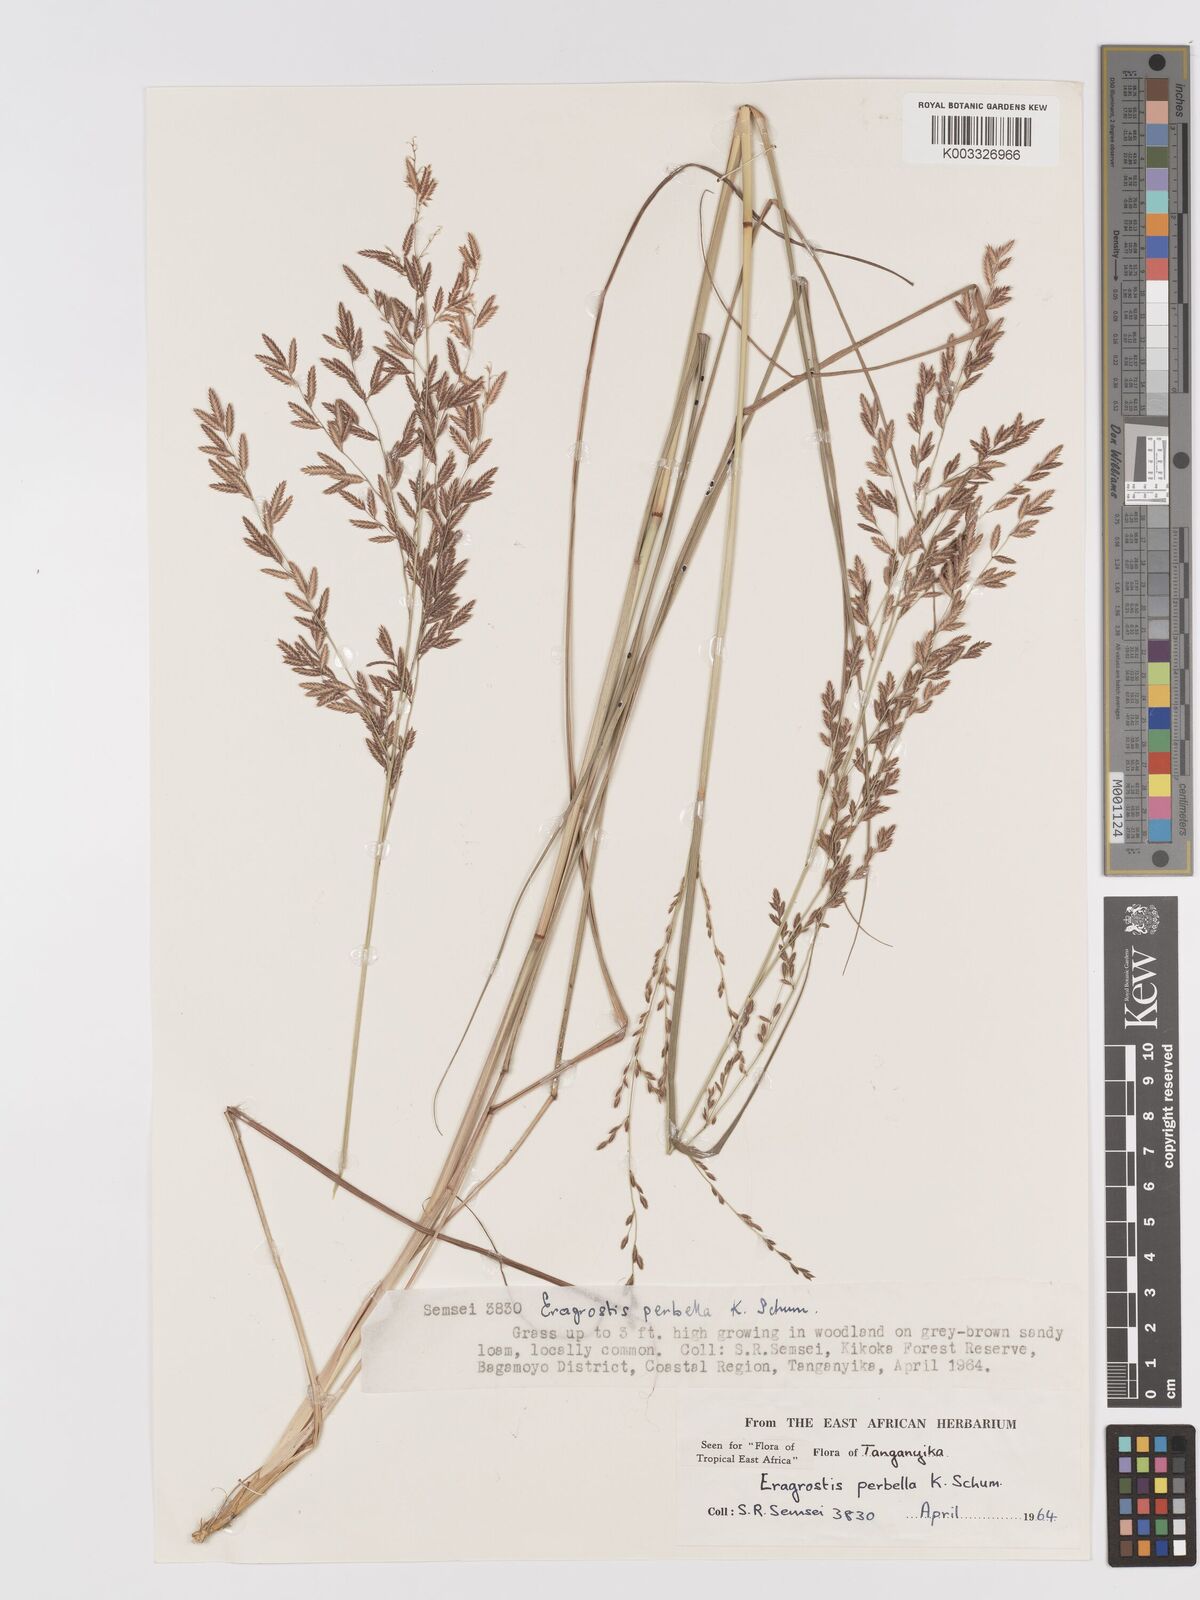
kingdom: Plantae
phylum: Tracheophyta
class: Liliopsida
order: Poales
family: Poaceae
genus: Eragrostis
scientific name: Eragrostis perbella
